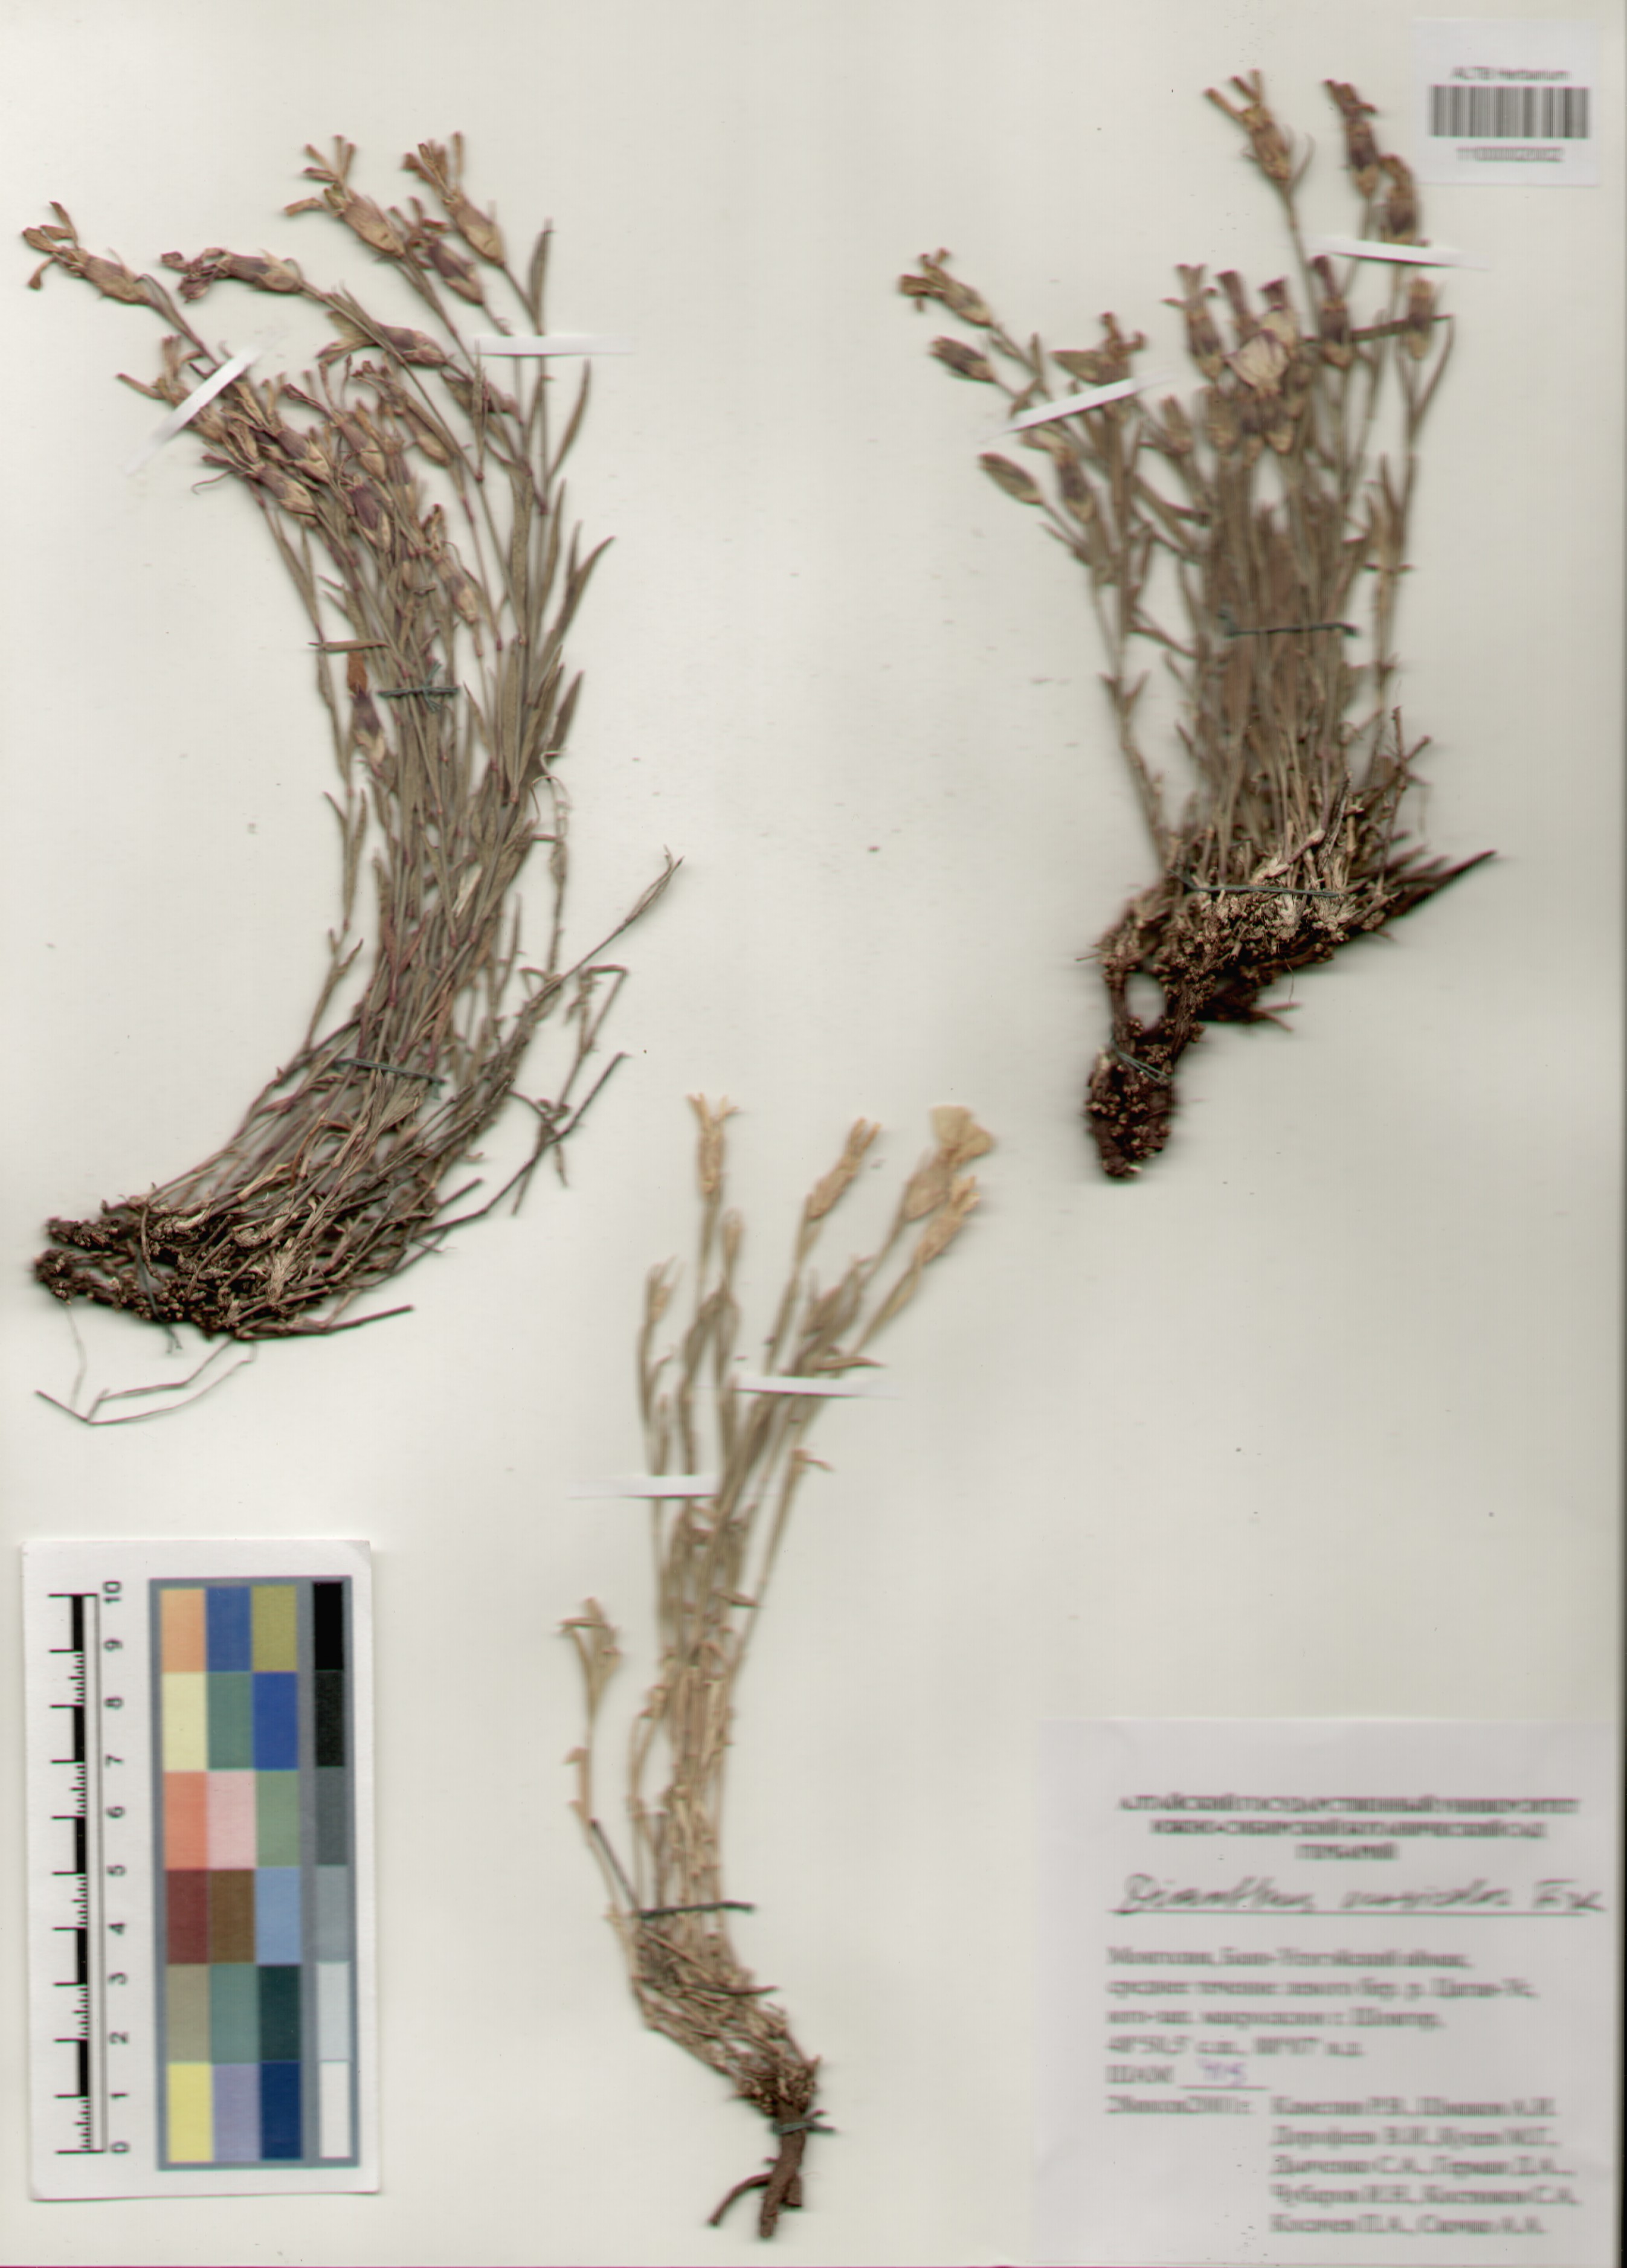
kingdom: Plantae
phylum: Tracheophyta
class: Magnoliopsida
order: Caryophyllales
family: Caryophyllaceae
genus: Dianthus
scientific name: Dianthus chinensis
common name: Rainbow pink
